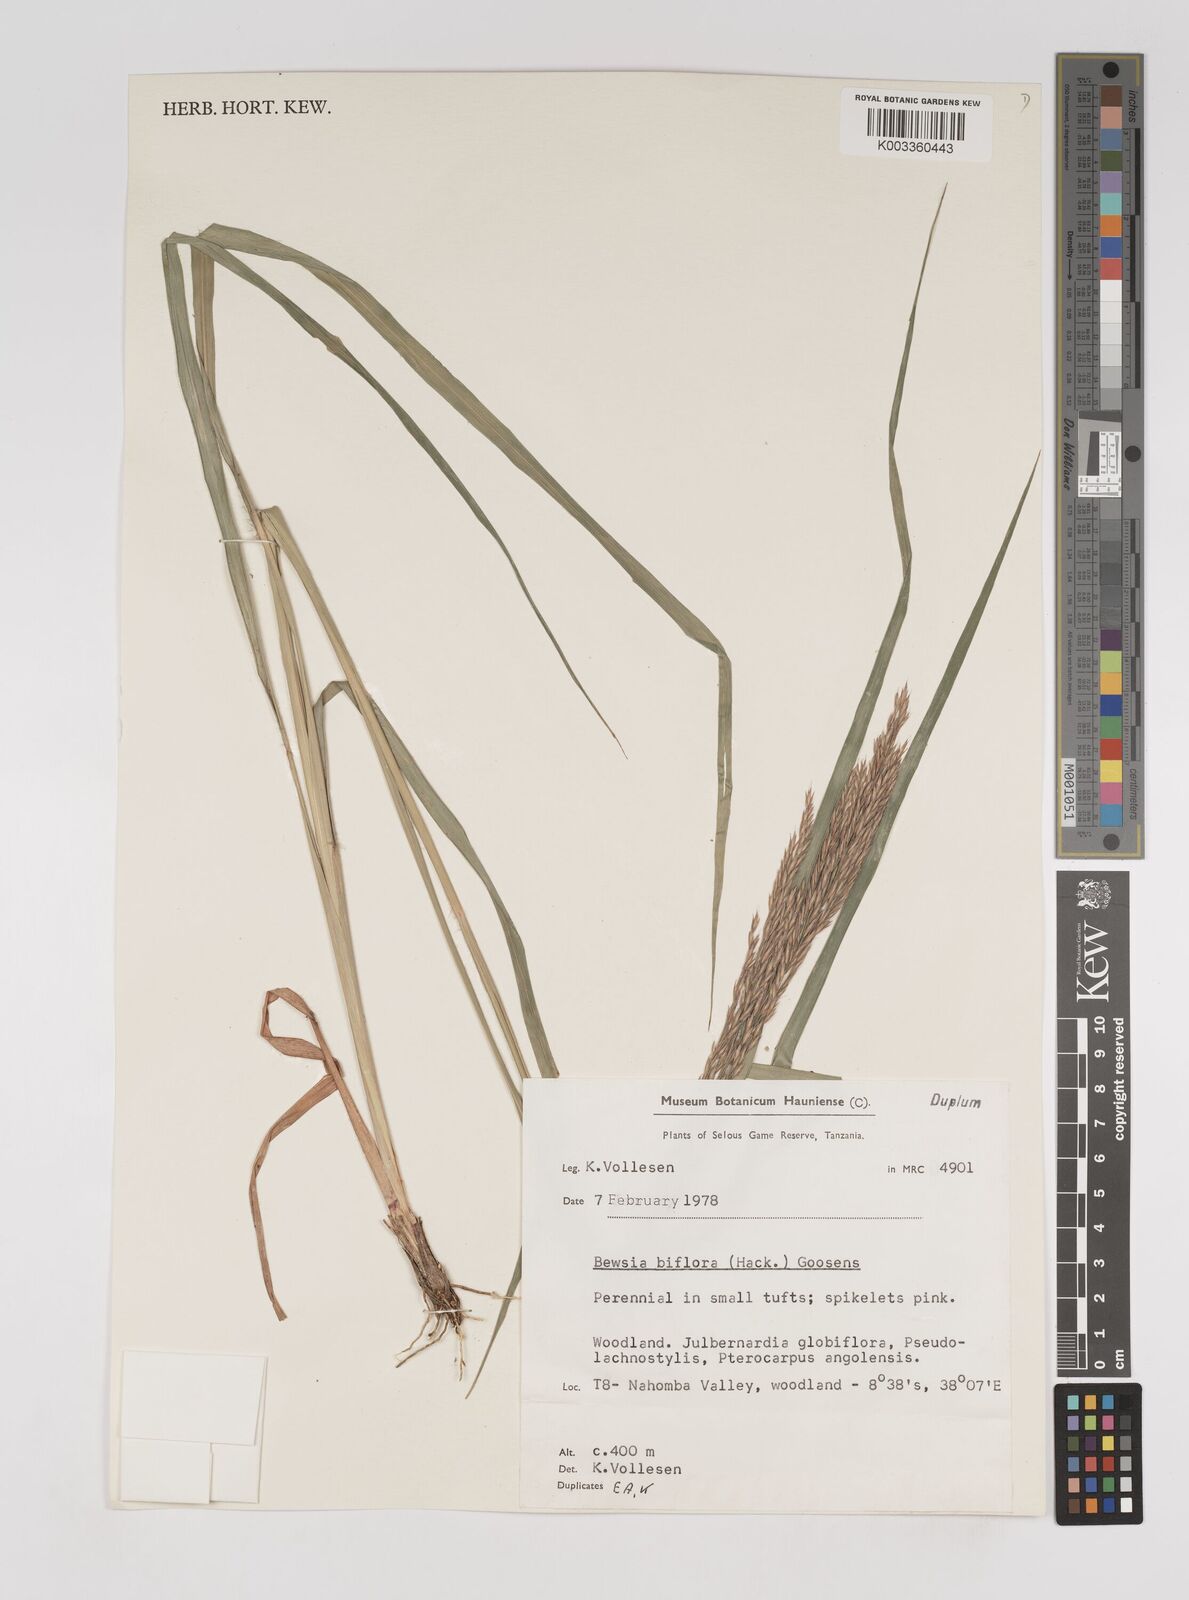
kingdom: Plantae
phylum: Tracheophyta
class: Liliopsida
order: Poales
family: Poaceae
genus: Bewsia
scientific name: Bewsia biflora
